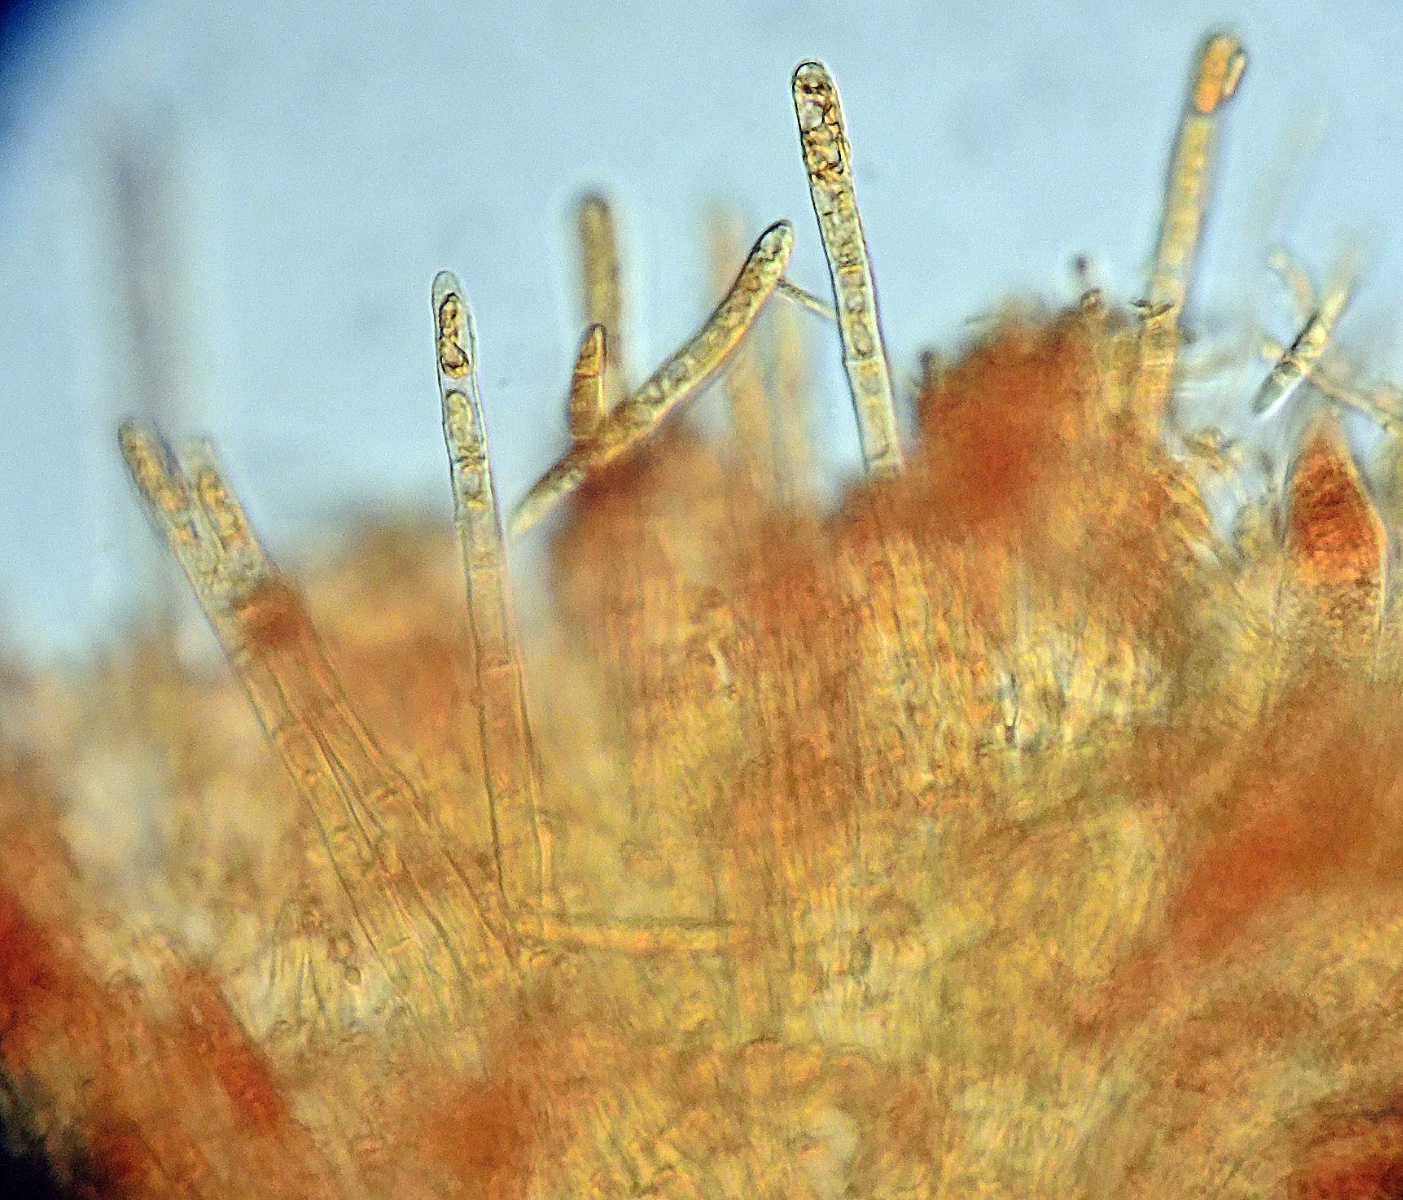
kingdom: Fungi
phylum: Ascomycota
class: Leotiomycetes
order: Helotiales
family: Arachnopezizaceae
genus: Arachnopeziza
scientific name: Arachnopeziza obtusipila
